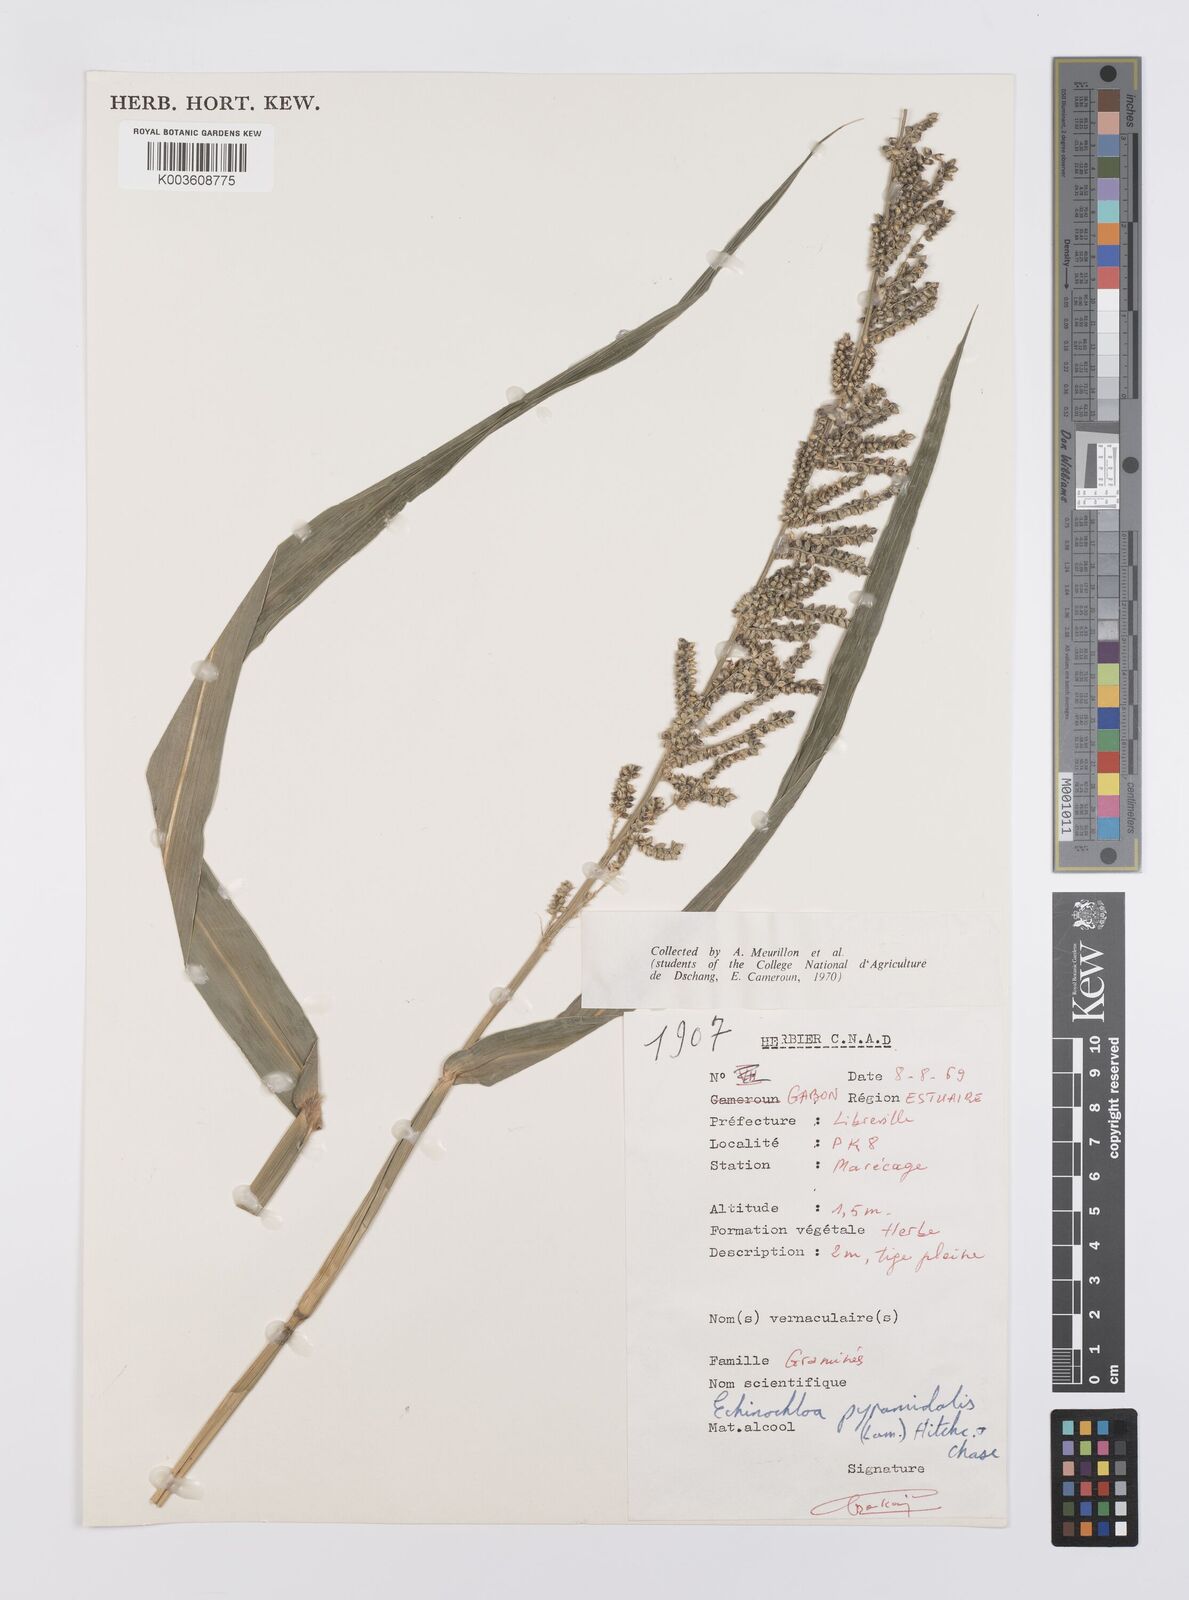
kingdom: Plantae
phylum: Tracheophyta
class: Liliopsida
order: Poales
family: Poaceae
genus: Echinochloa
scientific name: Echinochloa pyramidalis
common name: Antelope grass
